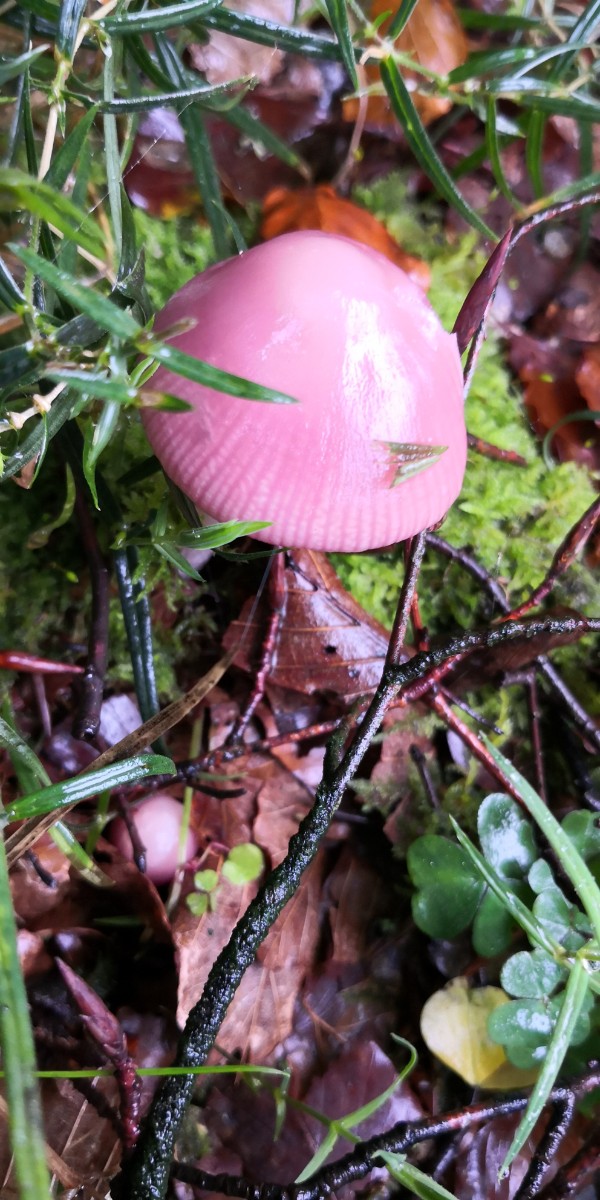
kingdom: Fungi
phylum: Basidiomycota
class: Agaricomycetes
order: Agaricales
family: Mycenaceae
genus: Mycena
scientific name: Mycena rosea
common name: rosa huesvamp
